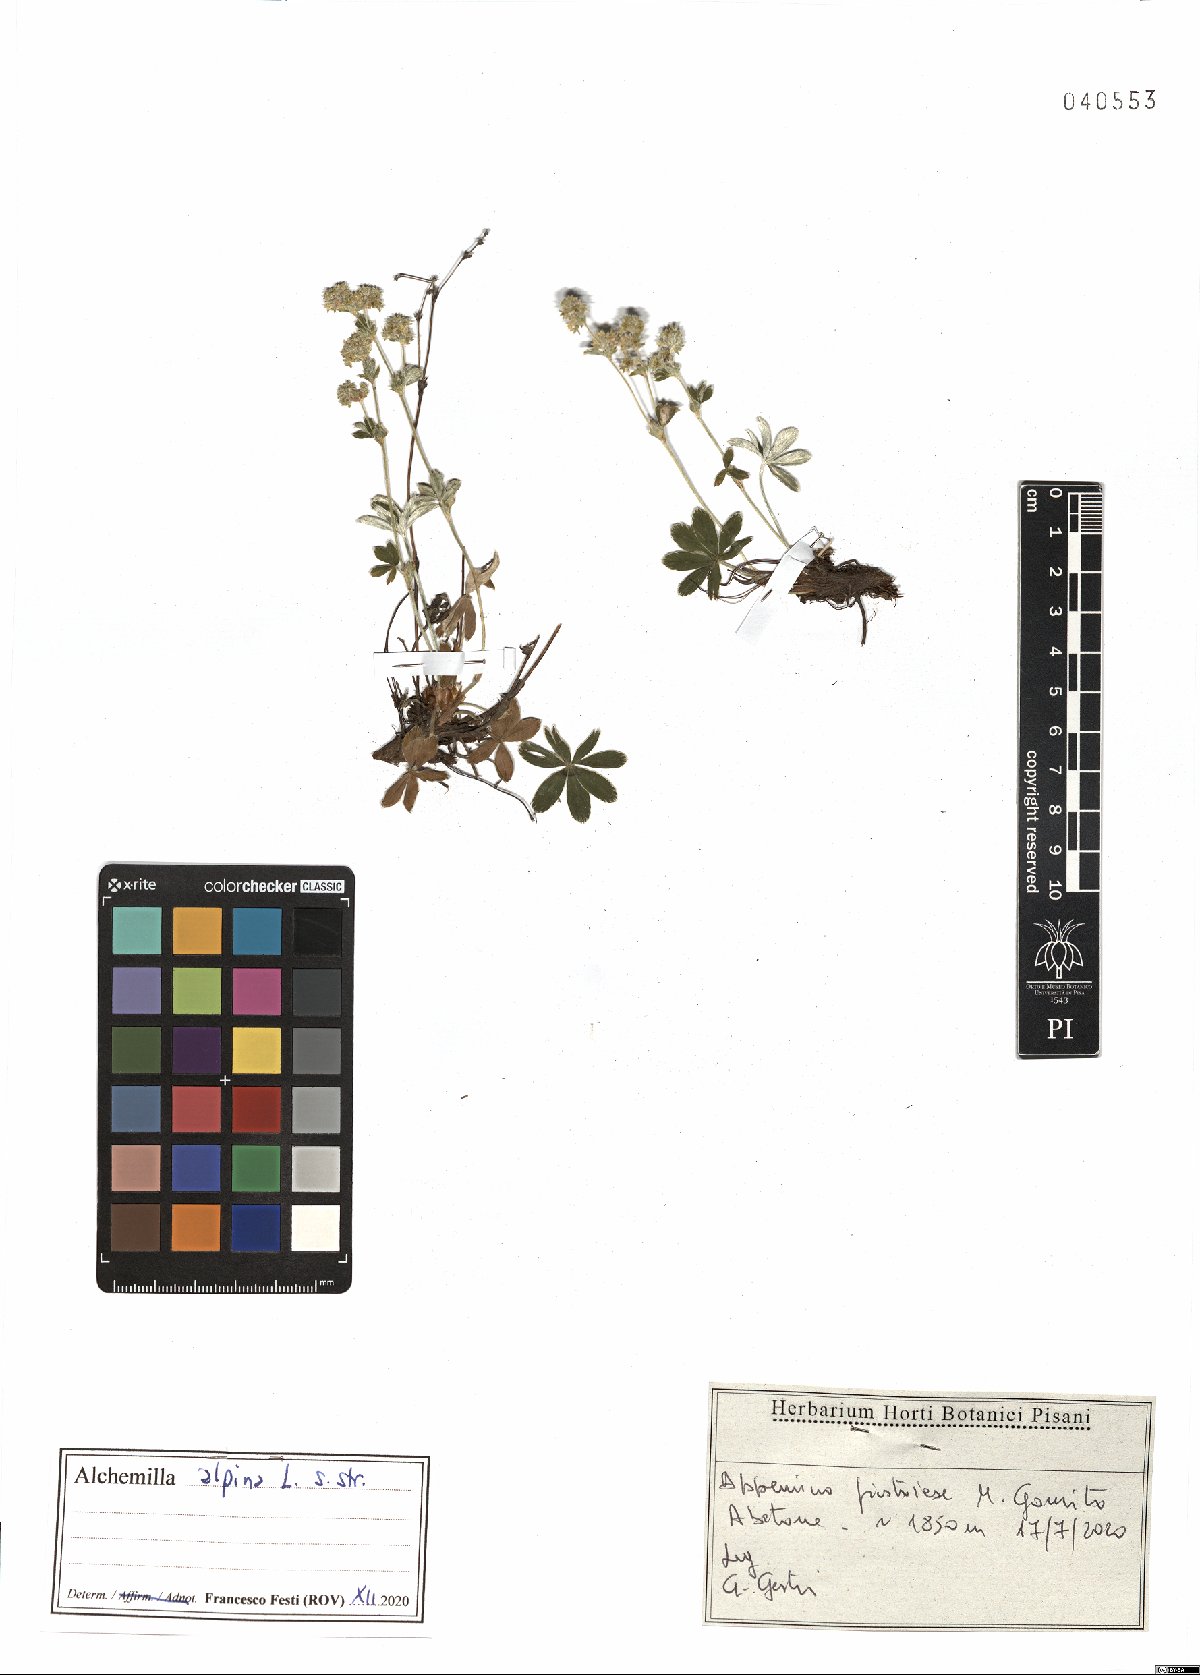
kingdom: Plantae
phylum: Tracheophyta
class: Magnoliopsida
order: Rosales
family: Rosaceae
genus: Alchemilla
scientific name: Alchemilla alpina
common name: Alpine lady's-mantle
